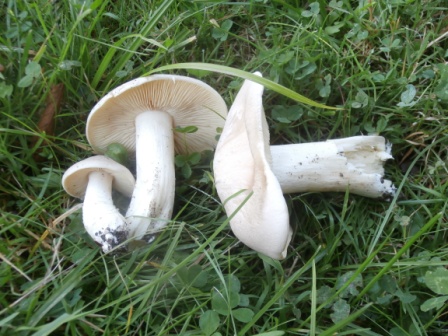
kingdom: Fungi
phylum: Basidiomycota
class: Agaricomycetes
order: Agaricales
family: Entolomataceae
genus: Entoloma
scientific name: Entoloma sinuatum
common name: giftig rødblad
